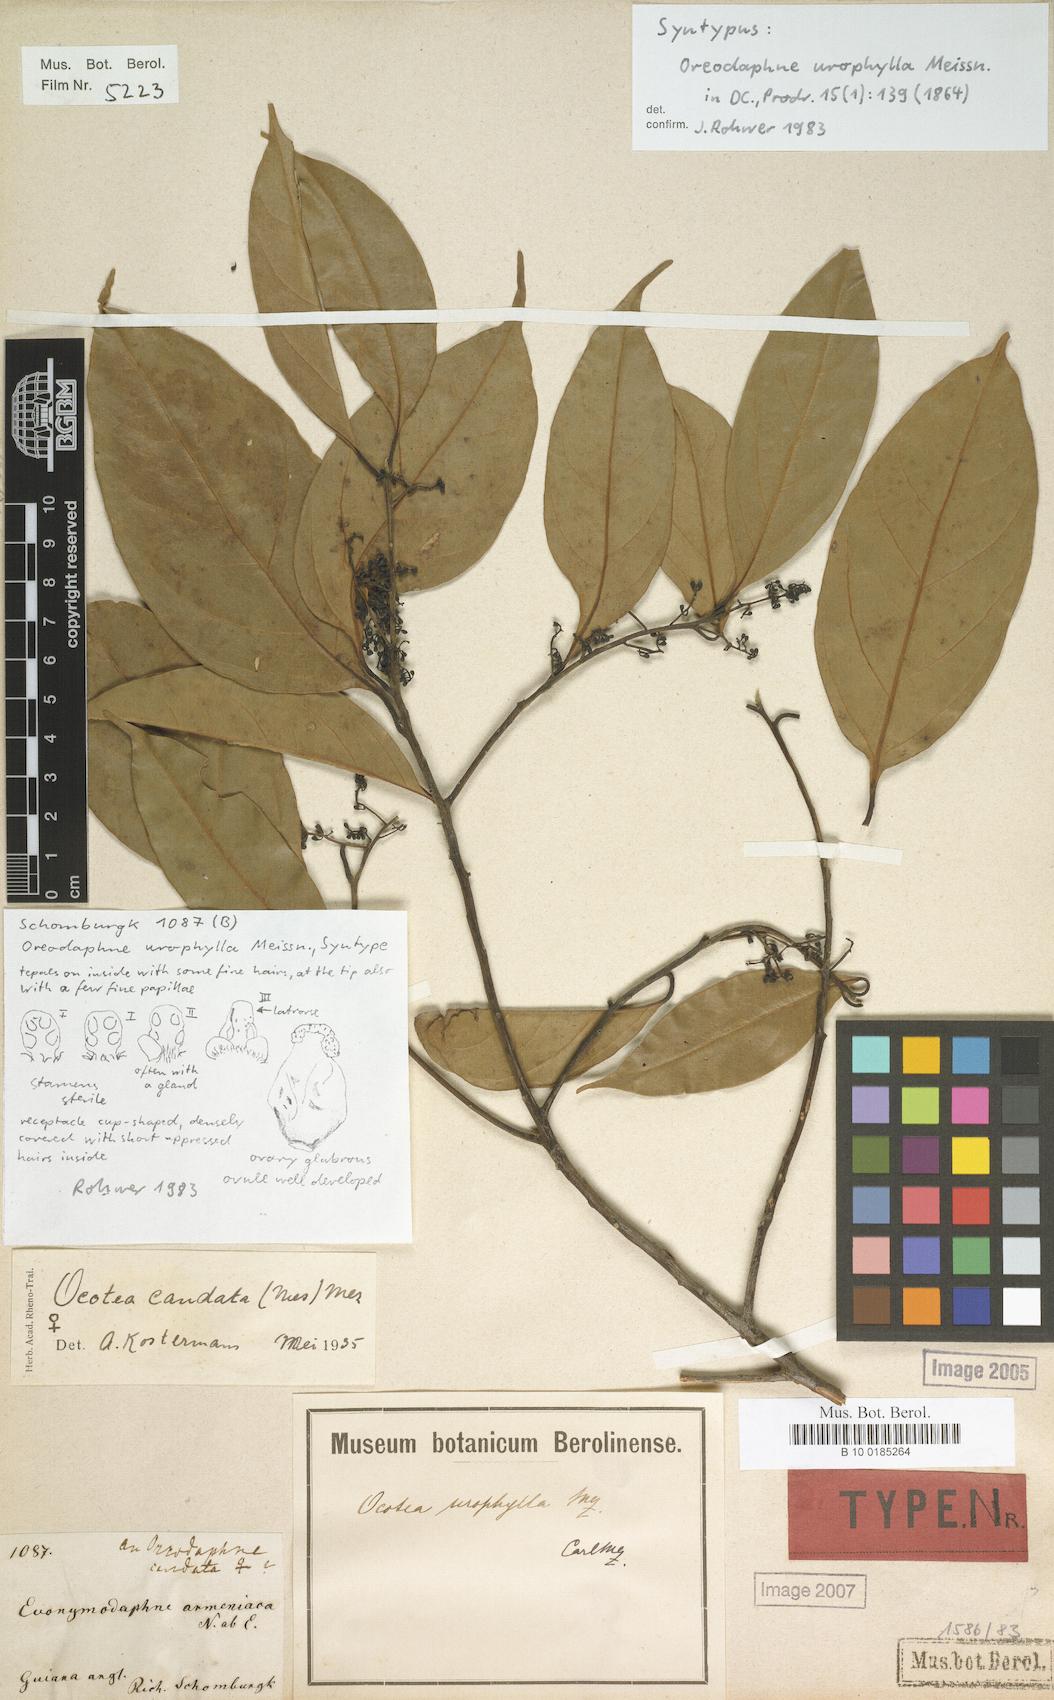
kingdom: Plantae
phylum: Tracheophyta
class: Magnoliopsida
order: Laurales
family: Lauraceae
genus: Ocotea
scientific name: Ocotea leptobotra
